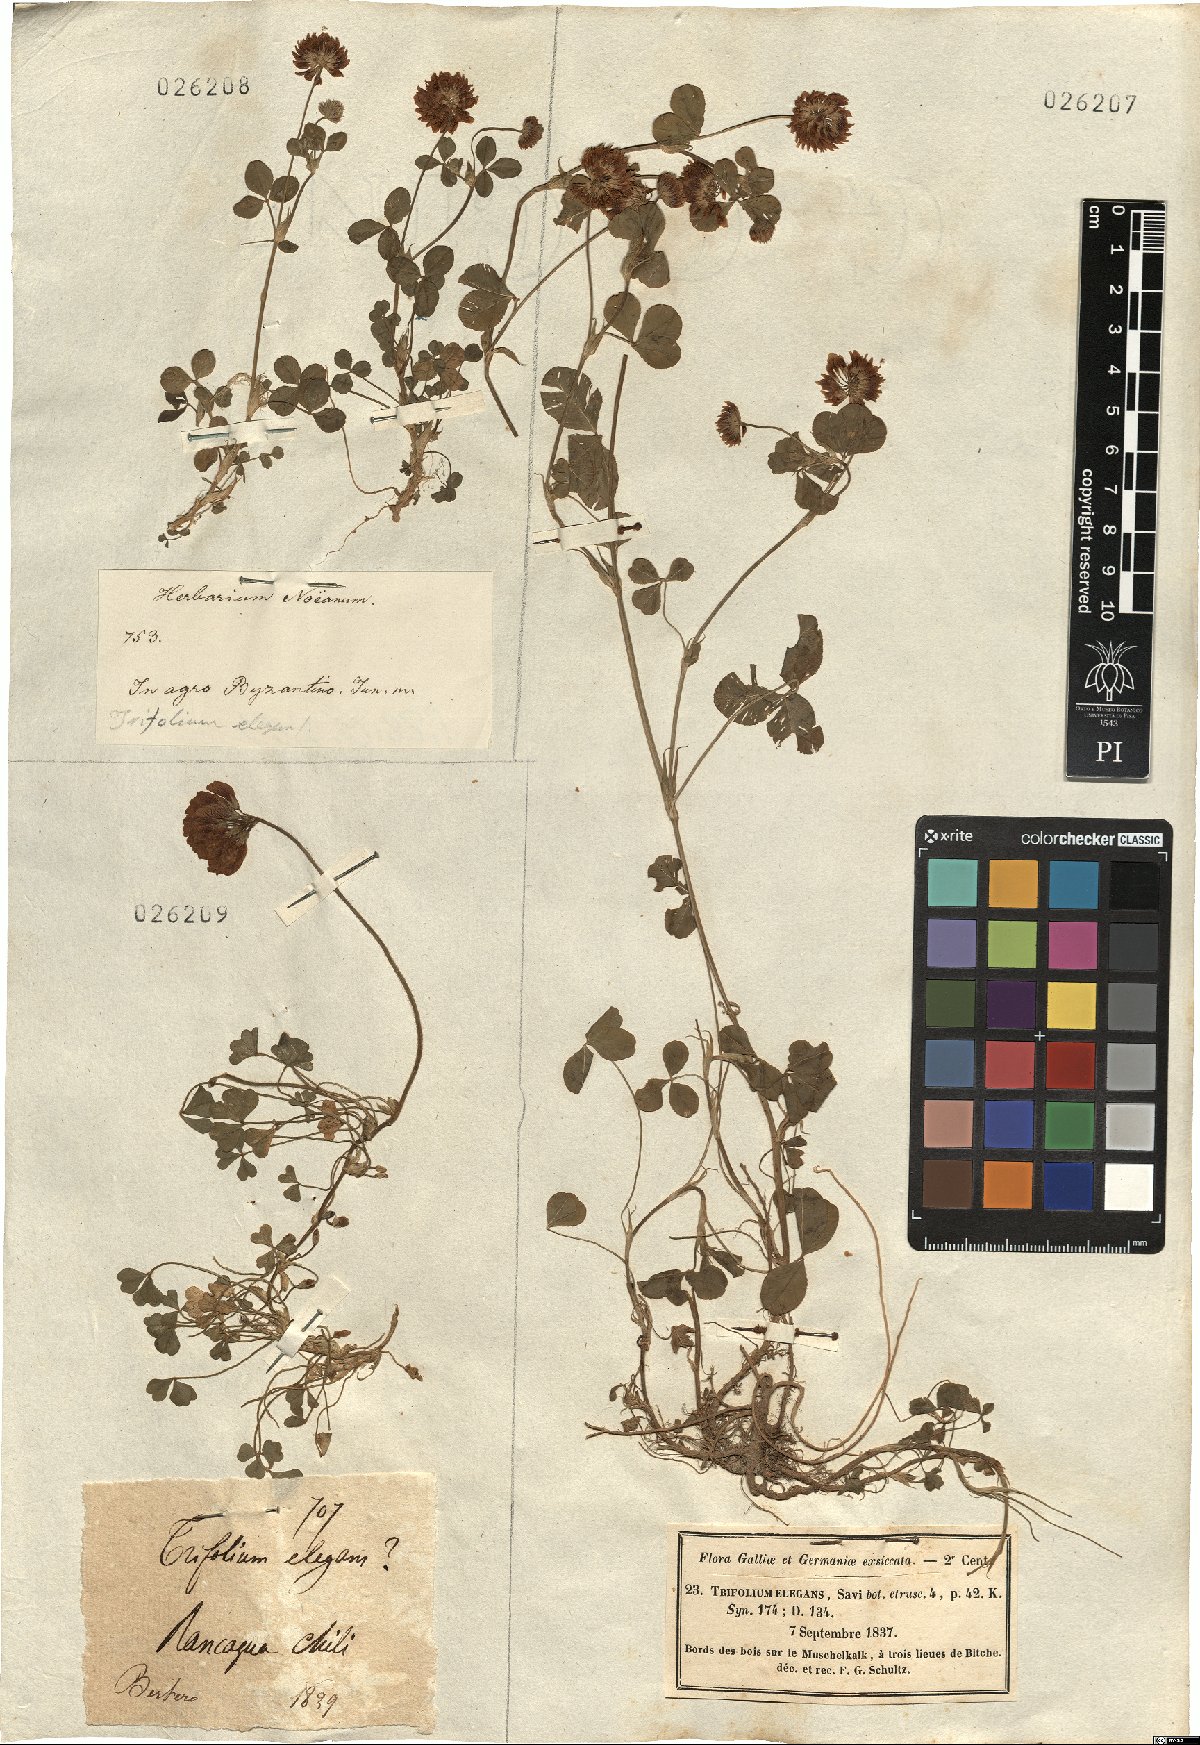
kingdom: Plantae
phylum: Tracheophyta
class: Magnoliopsida
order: Fabales
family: Fabaceae
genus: Trifolium
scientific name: Trifolium hybridum
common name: Alsike clover
